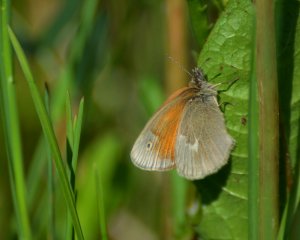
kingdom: Animalia
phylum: Arthropoda
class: Insecta
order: Lepidoptera
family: Nymphalidae
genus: Coenonympha
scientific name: Coenonympha tullia
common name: Large Heath
